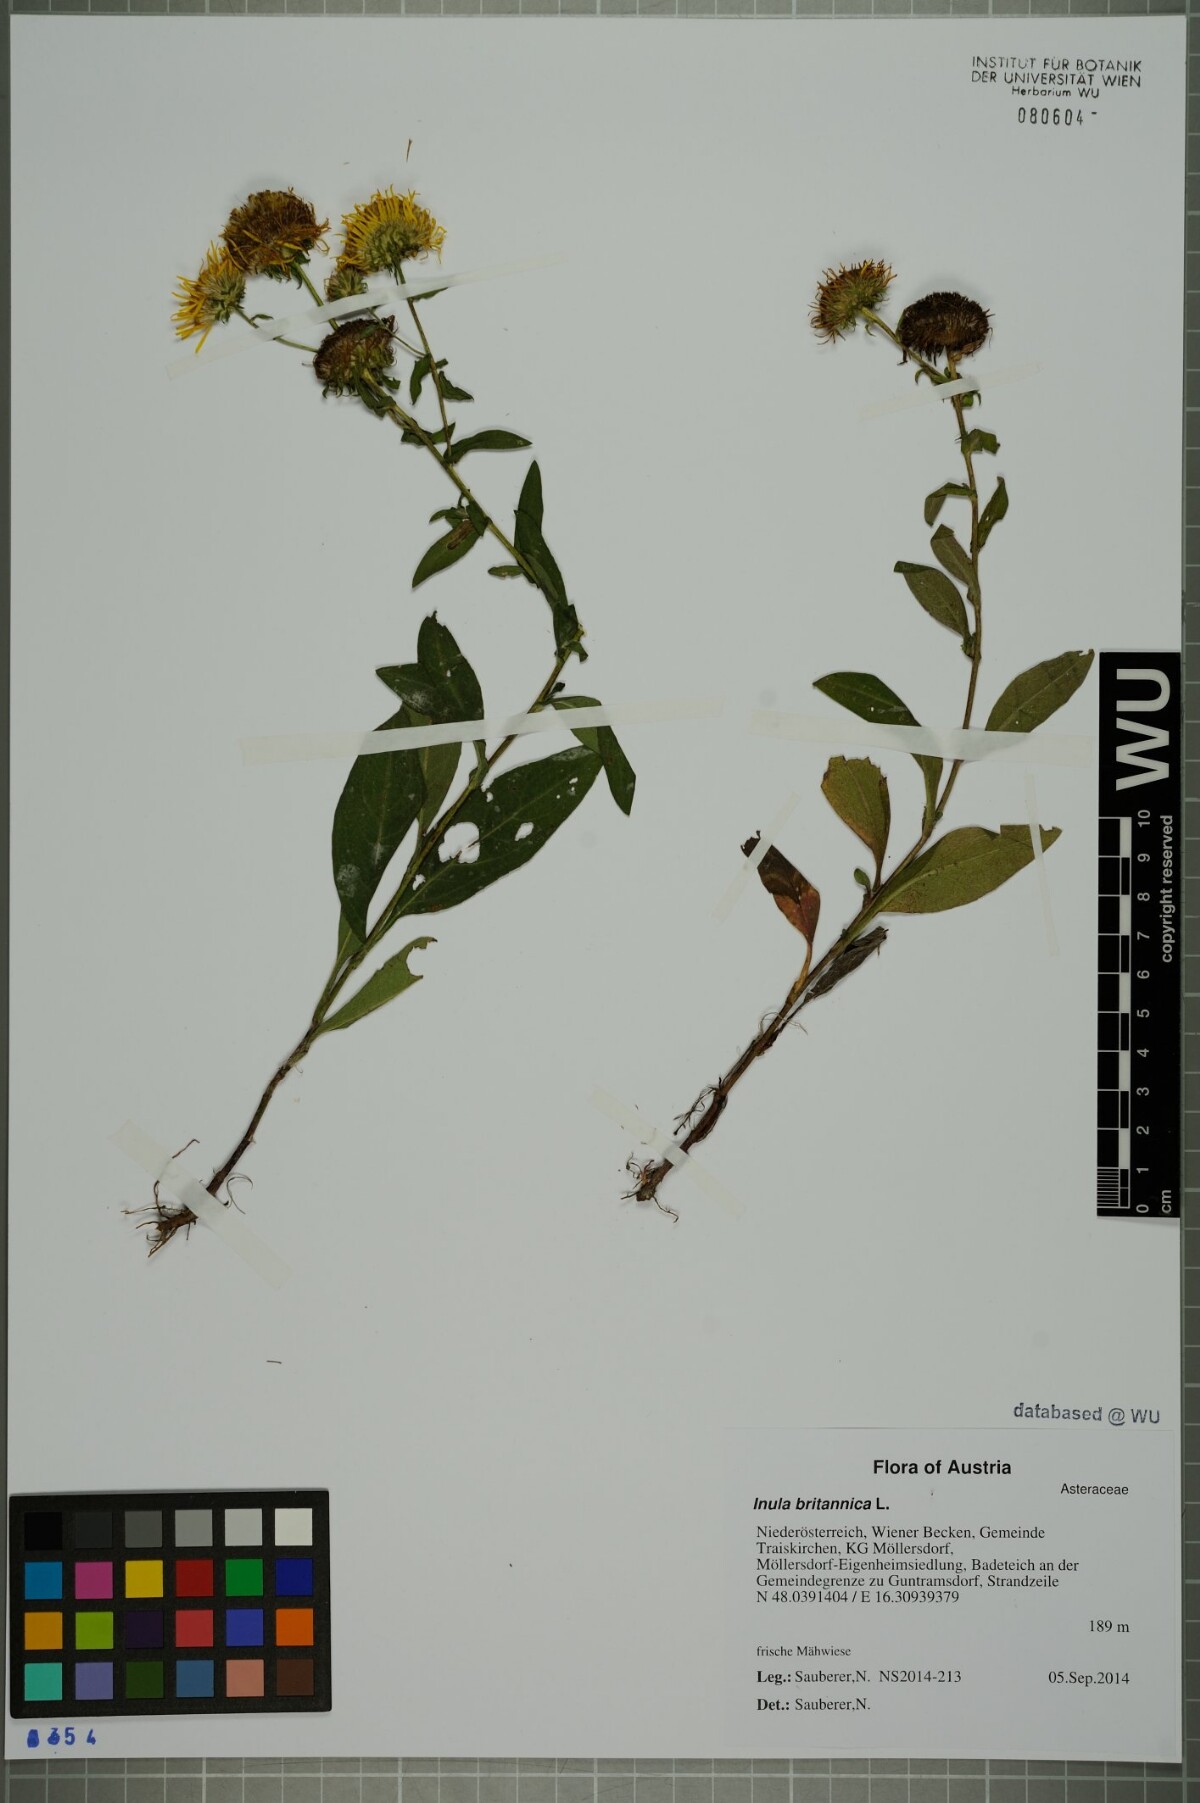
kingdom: Plantae
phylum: Tracheophyta
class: Magnoliopsida
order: Asterales
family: Asteraceae
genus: Pentanema
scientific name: Pentanema britannicum
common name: British elecampane
